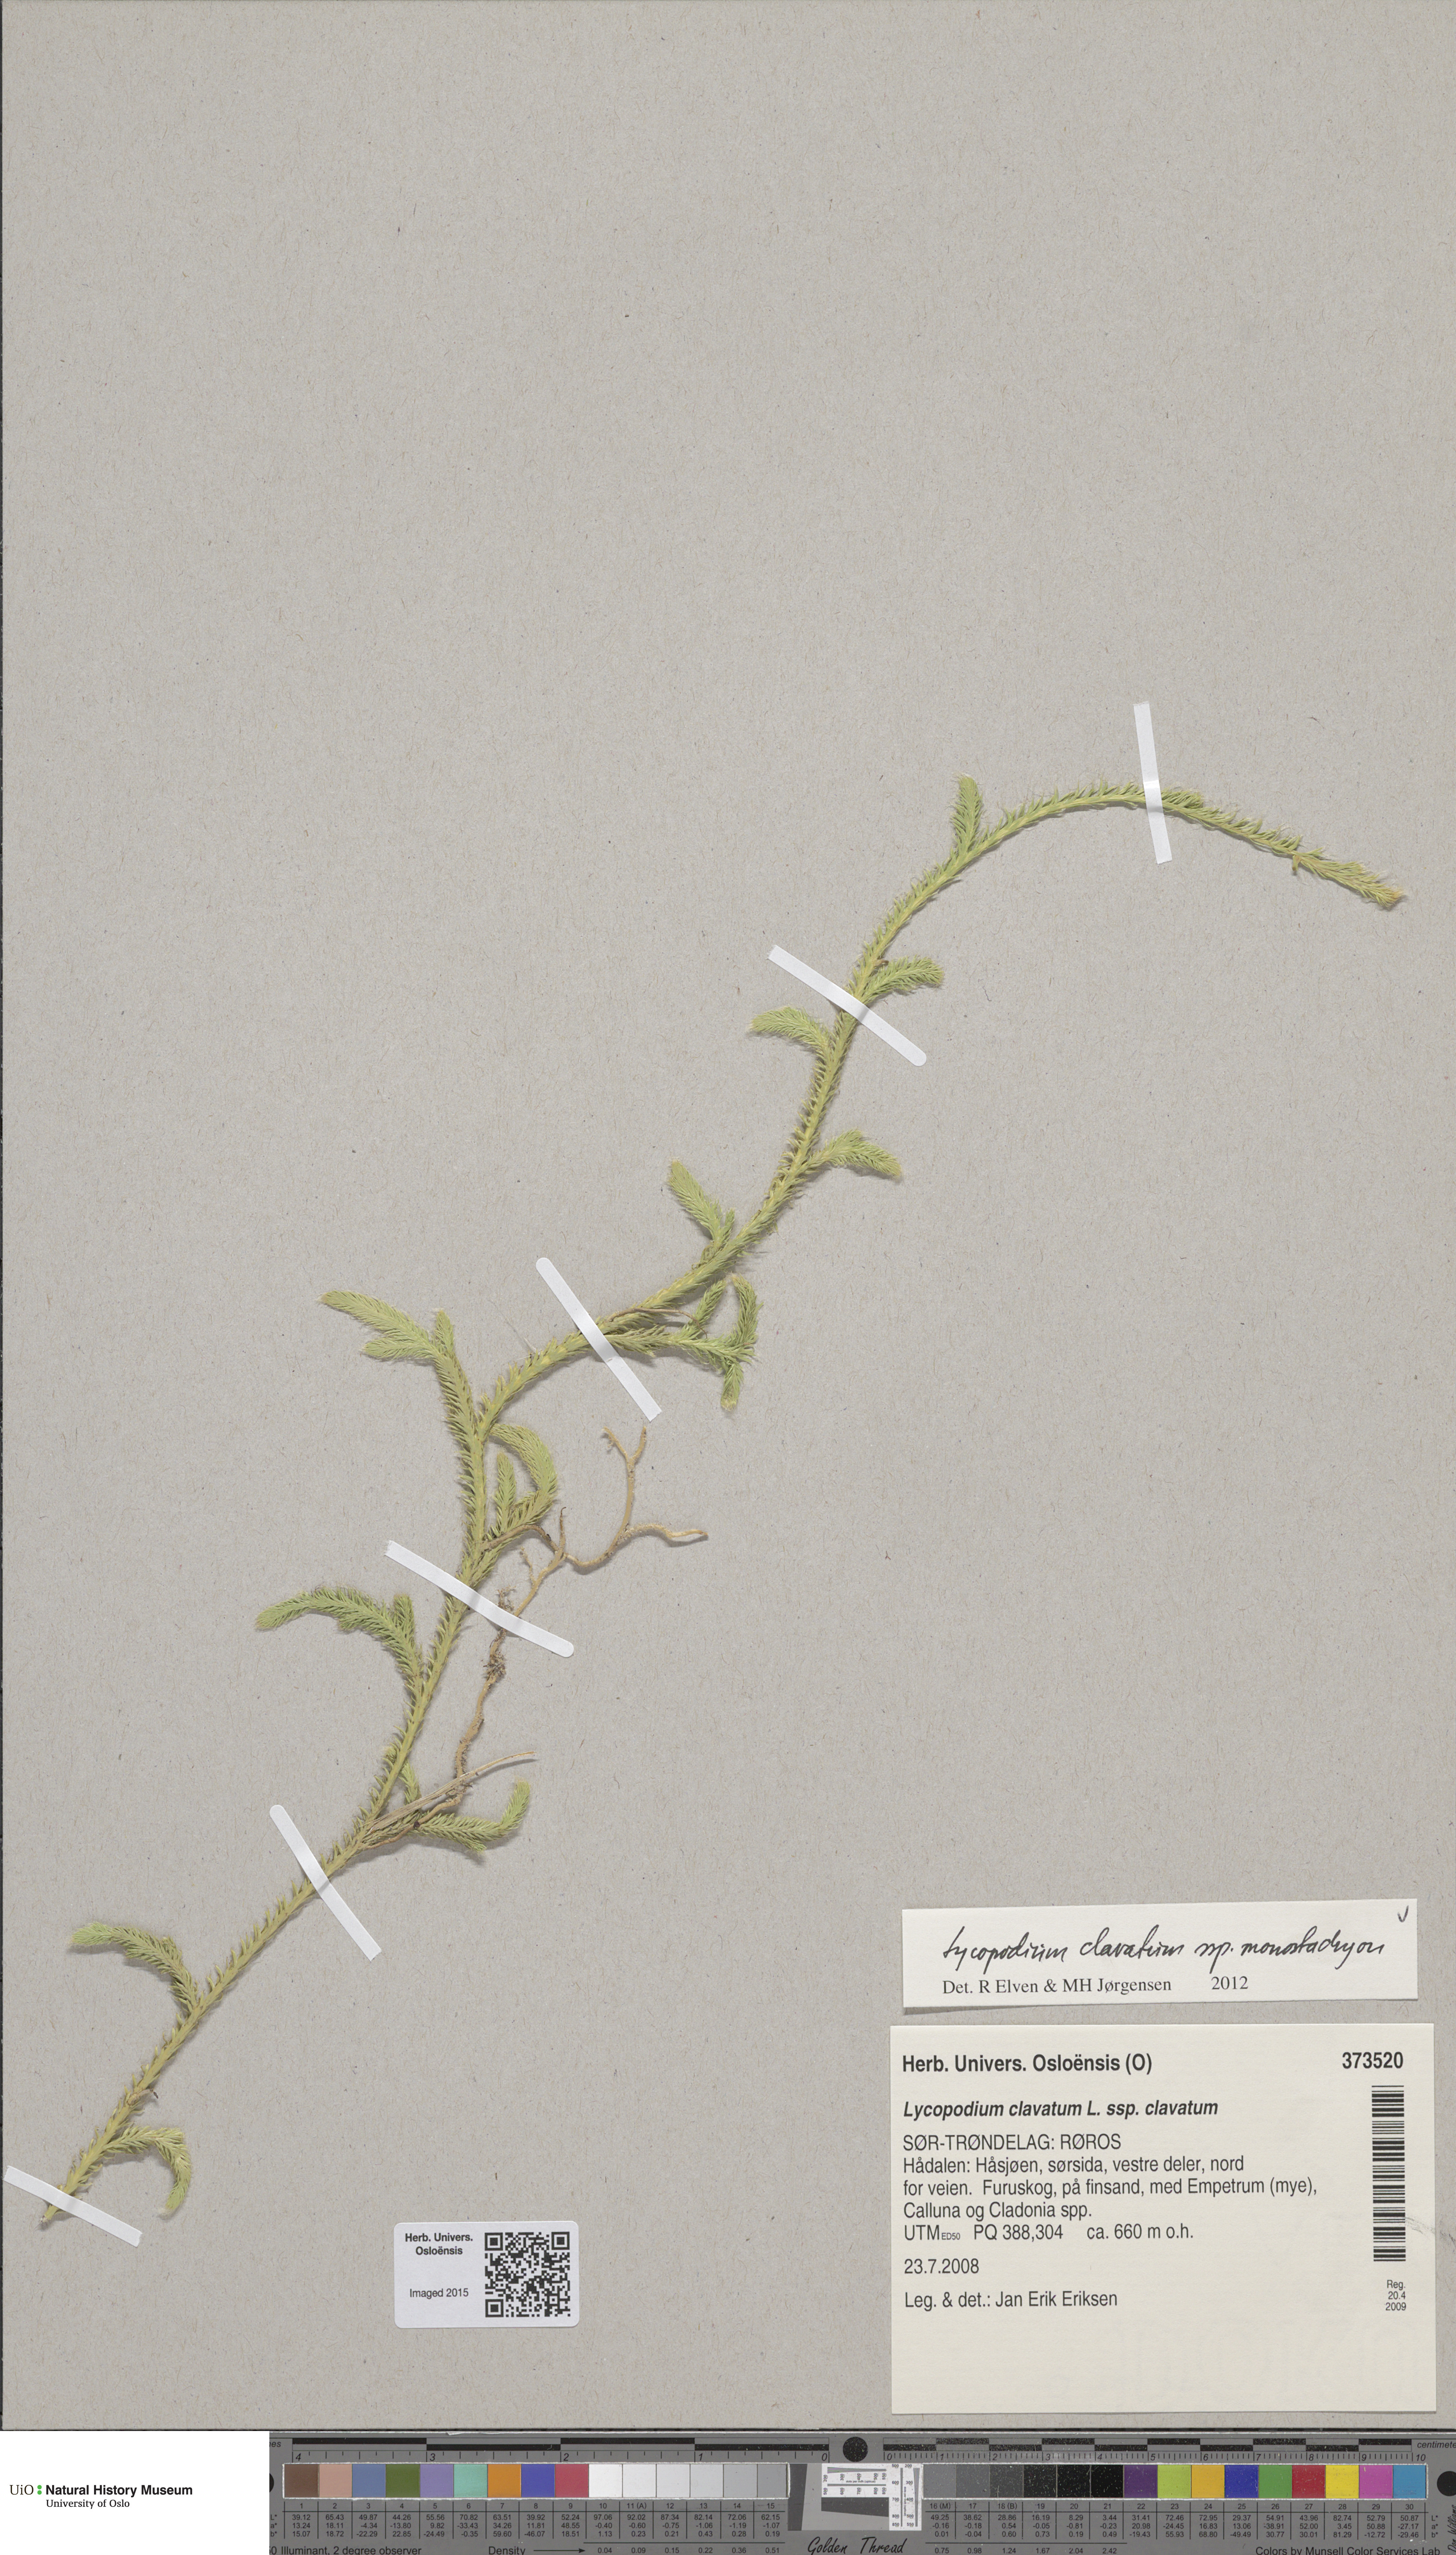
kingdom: Plantae
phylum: Tracheophyta
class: Lycopodiopsida
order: Lycopodiales
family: Lycopodiaceae
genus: Lycopodium
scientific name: Lycopodium lagopus
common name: One-cone clubmoss
